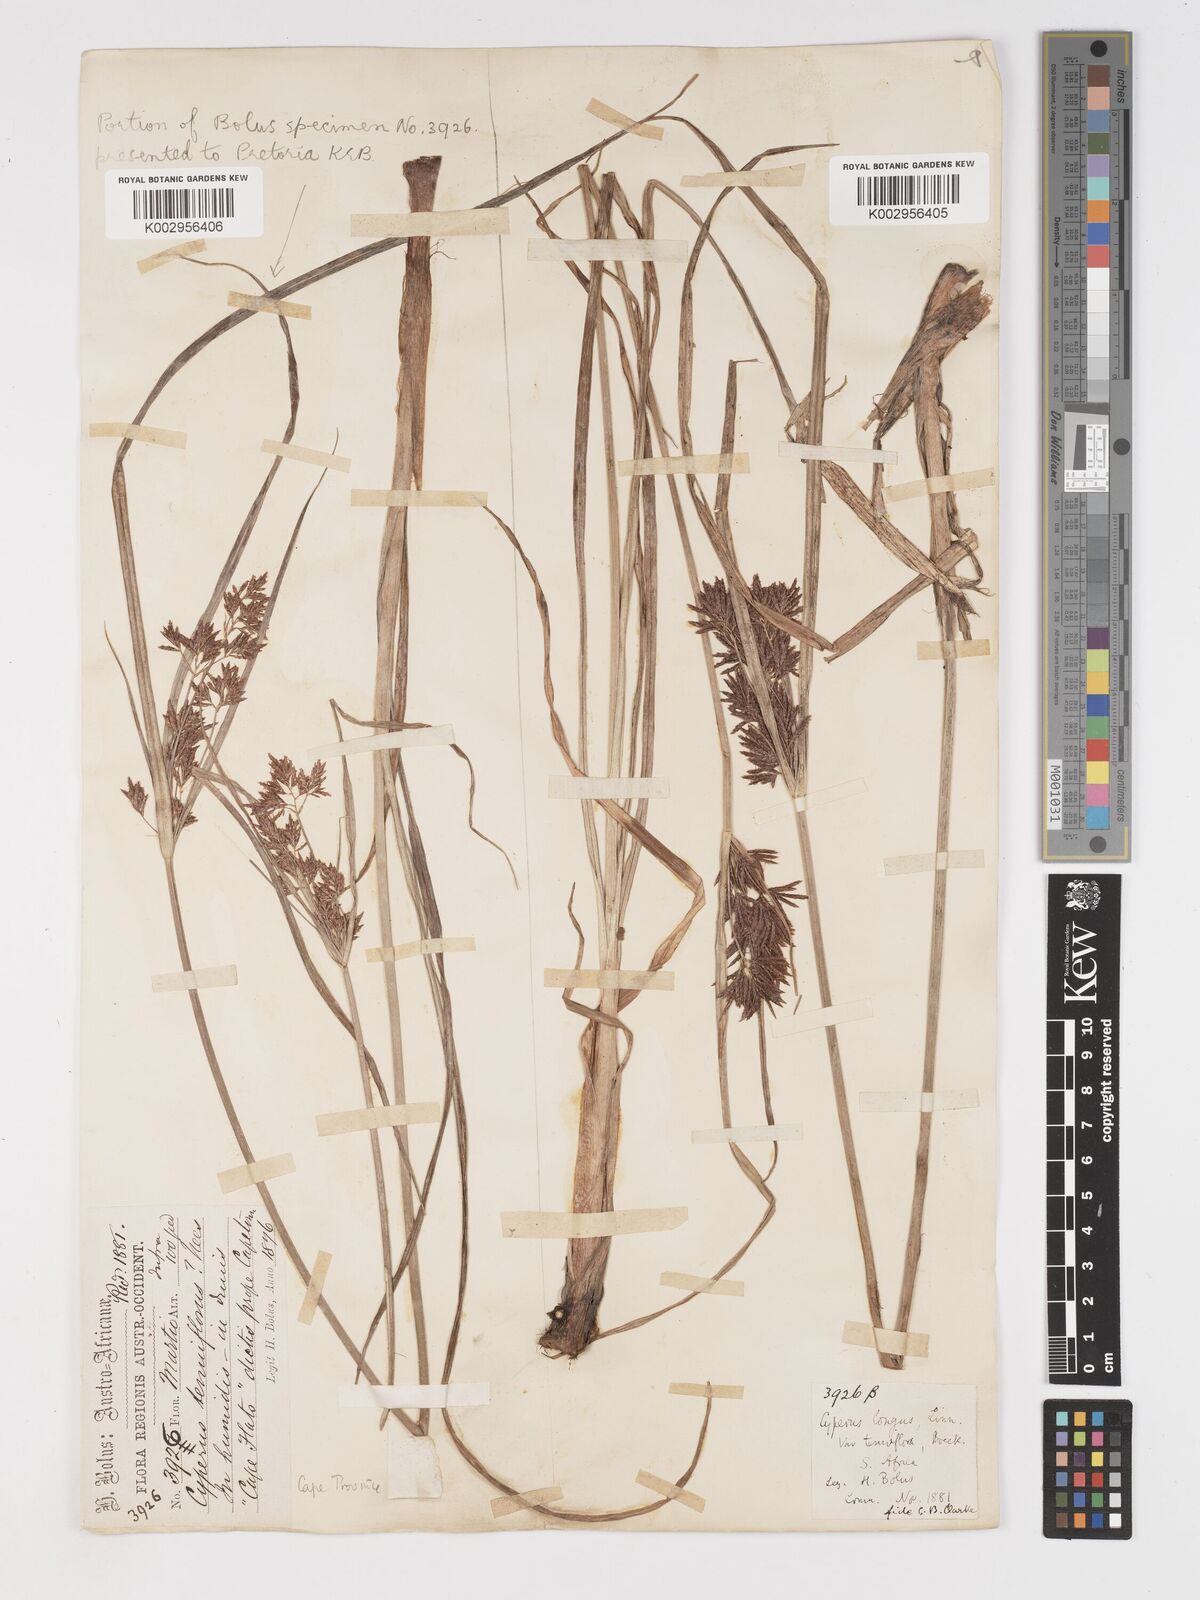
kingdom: Plantae
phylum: Tracheophyta
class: Liliopsida
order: Poales
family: Cyperaceae
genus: Cyperus
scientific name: Cyperus longus
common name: Galingale
